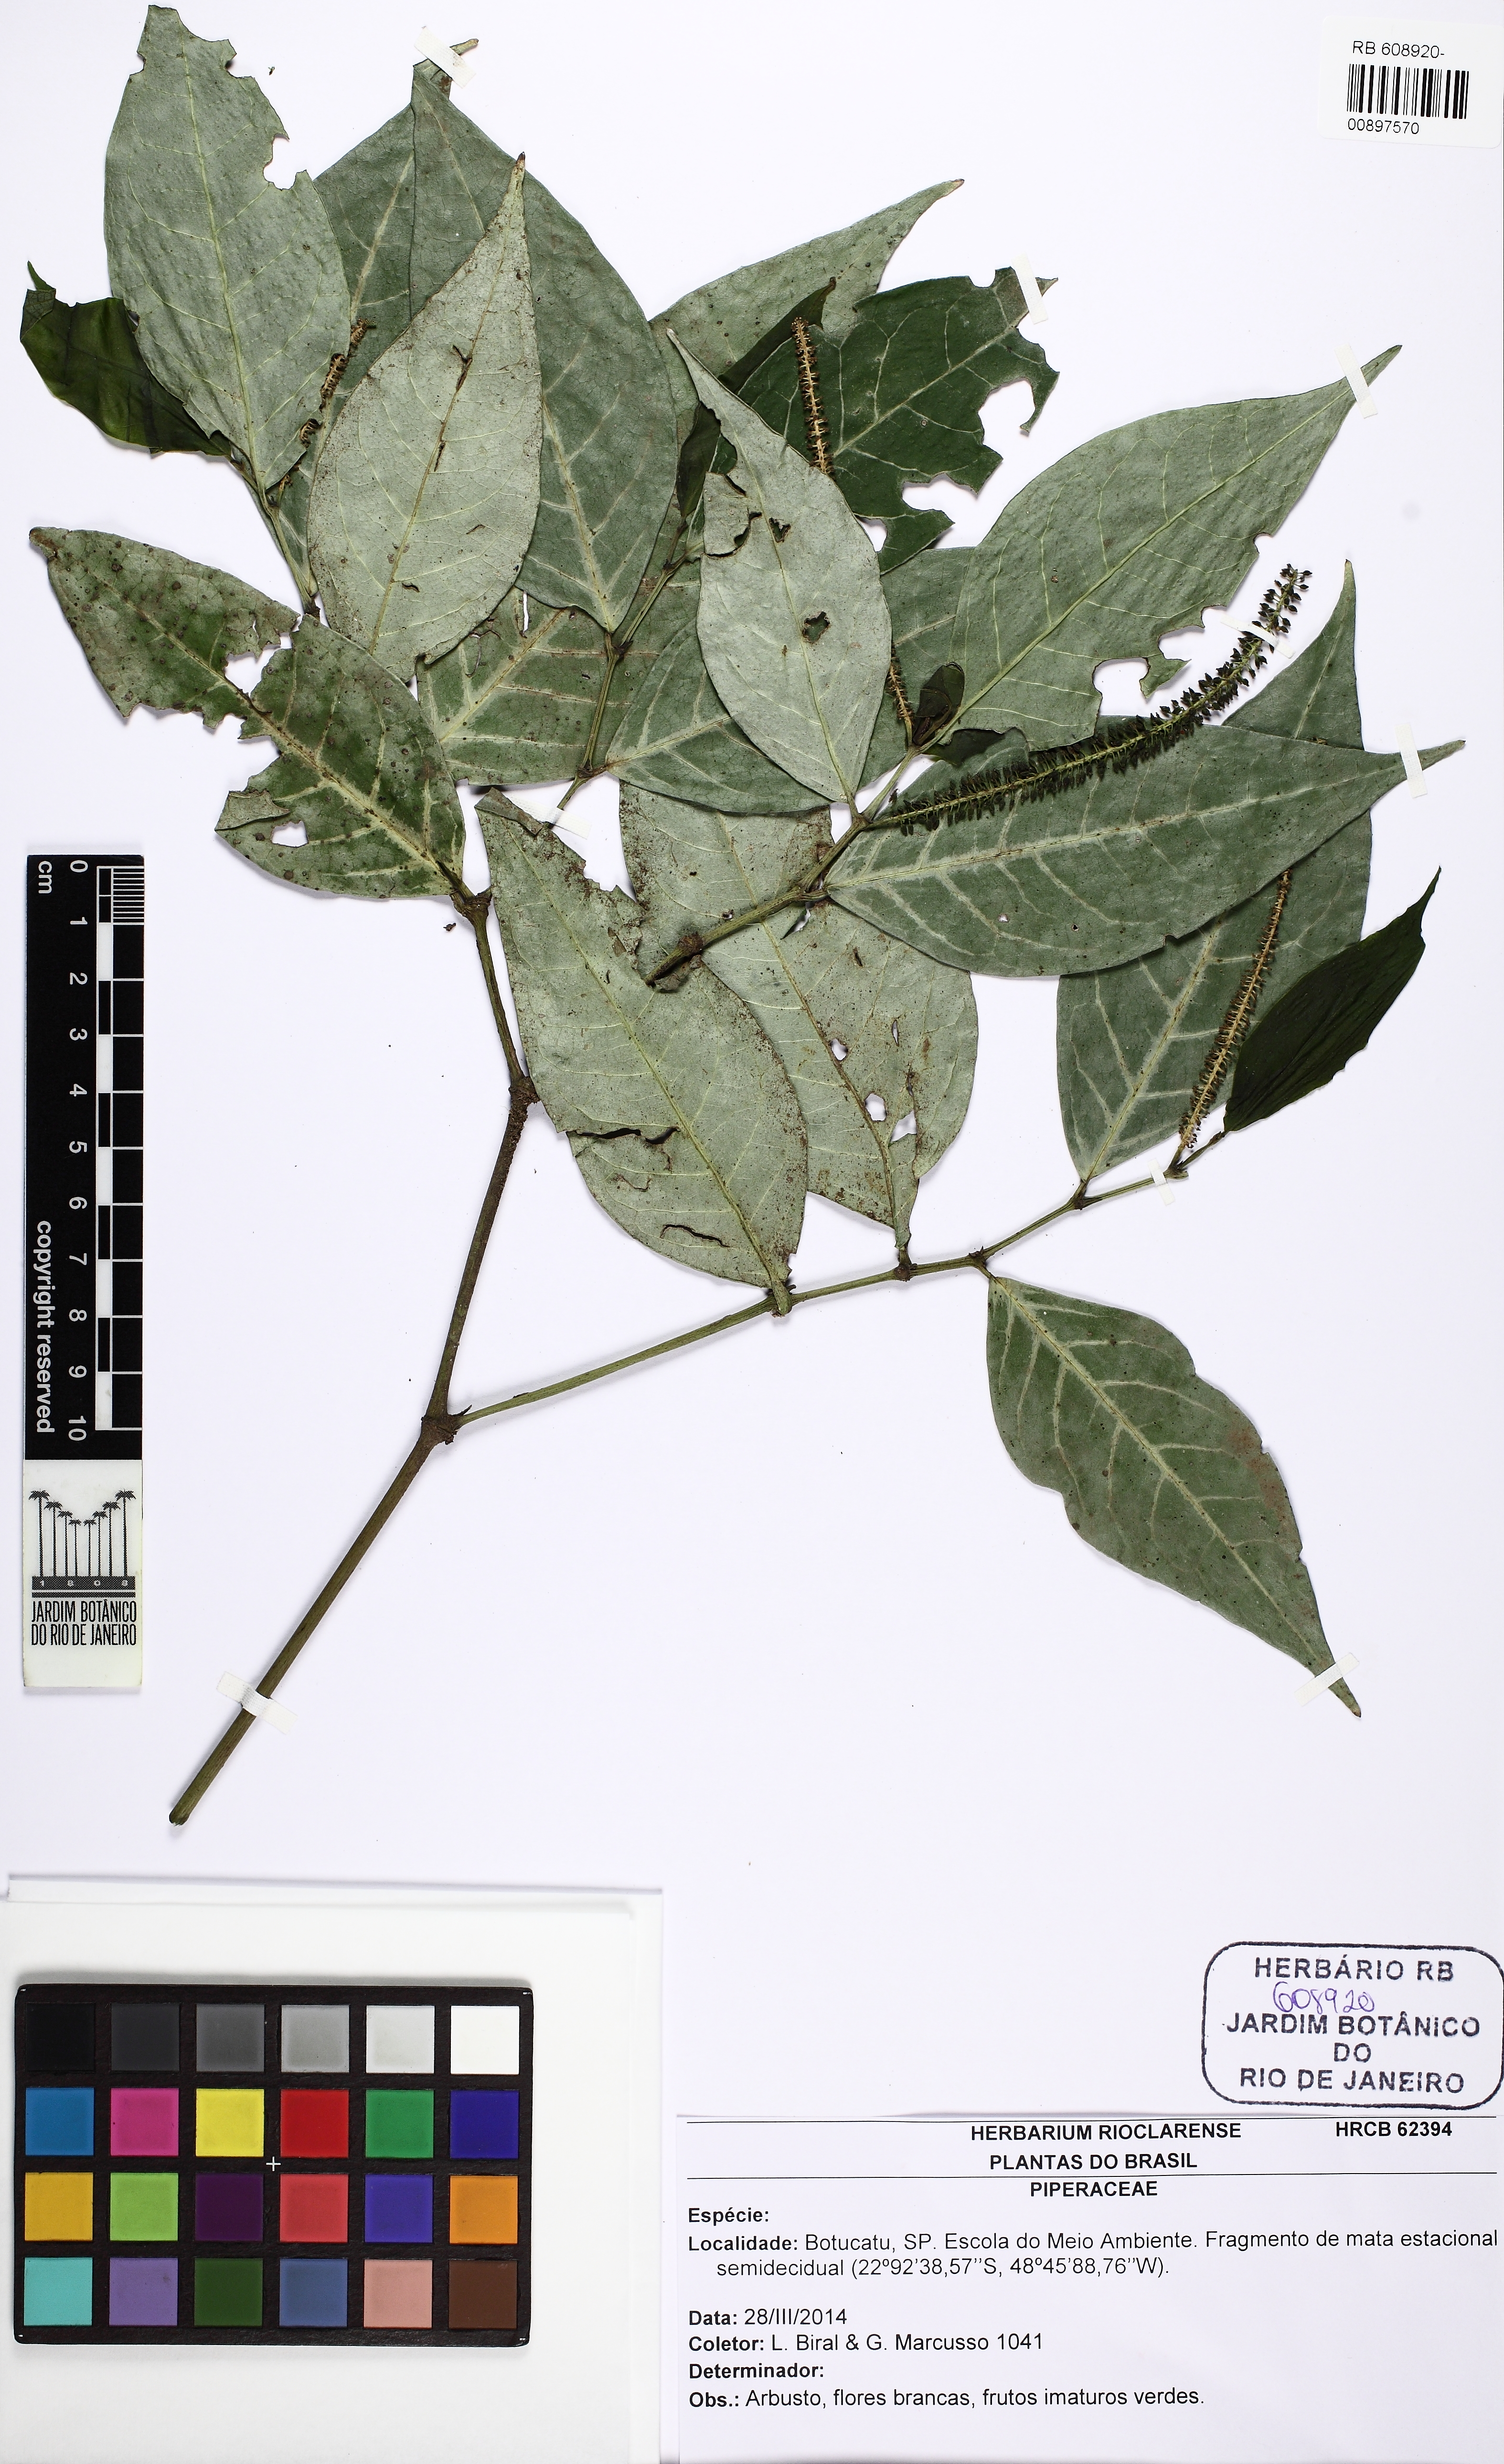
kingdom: Plantae
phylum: Tracheophyta
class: Magnoliopsida
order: Piperales
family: Piperaceae
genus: Piper
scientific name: Piper corcovadense
